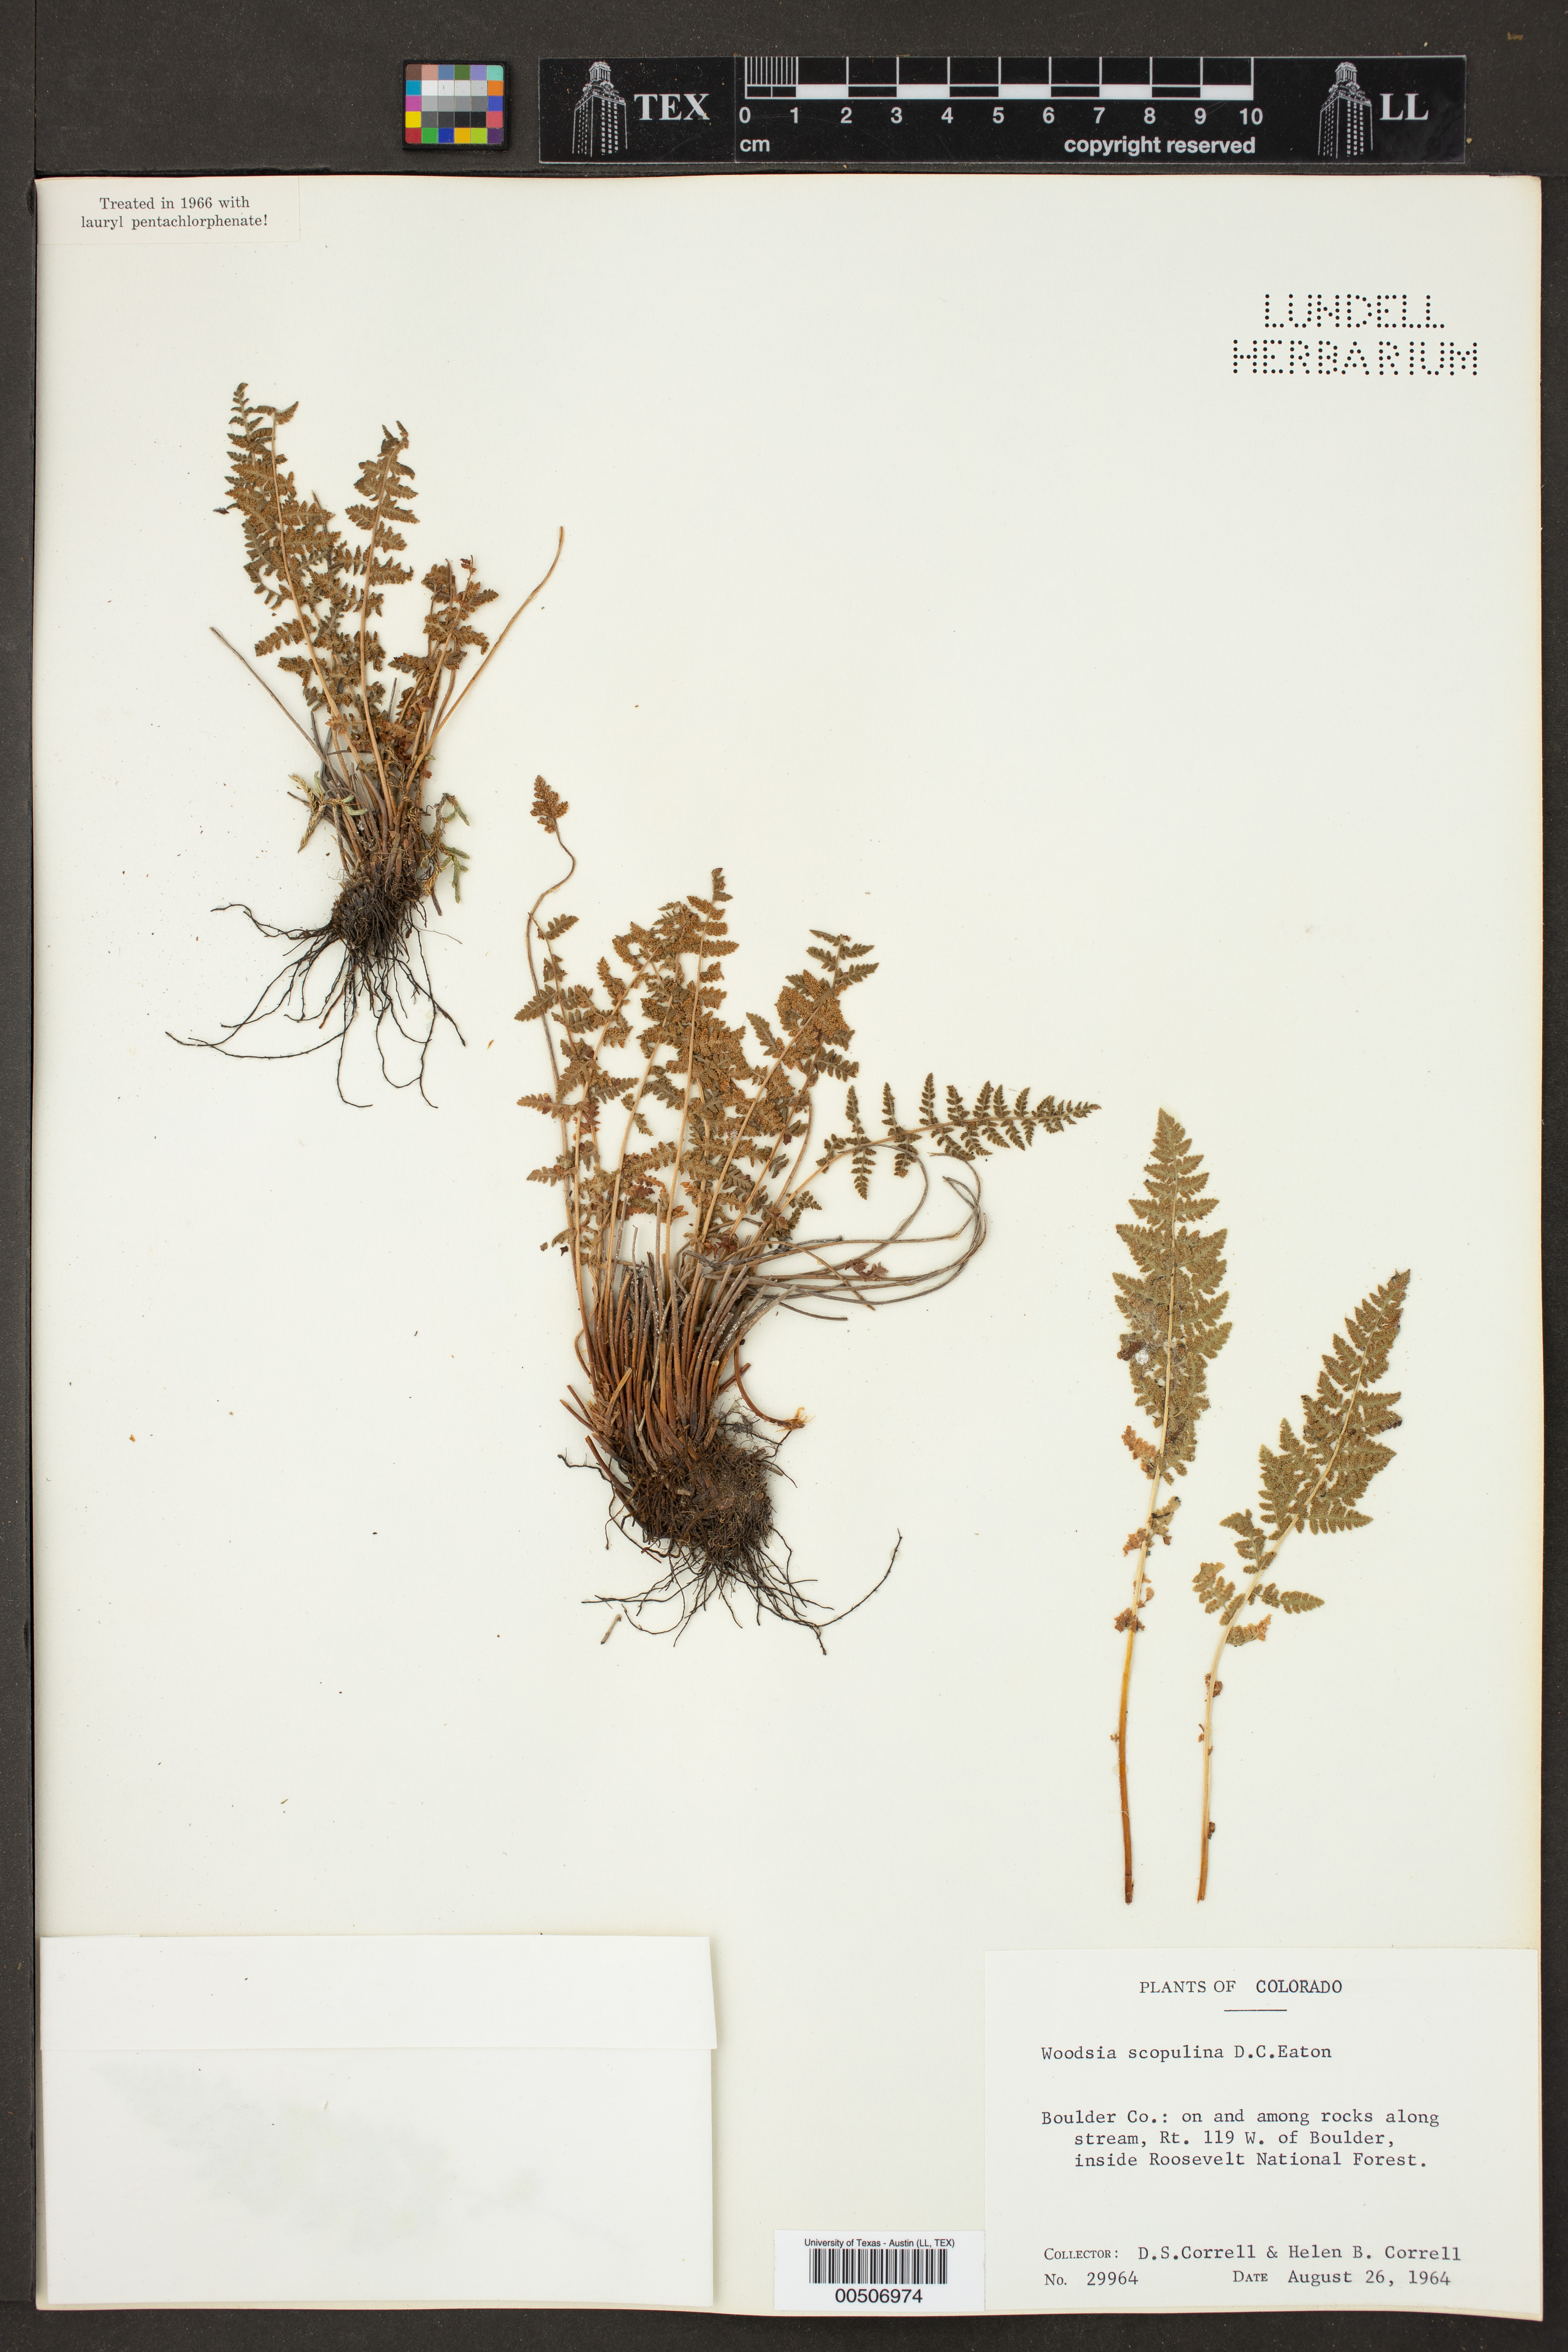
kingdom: Plantae
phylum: Tracheophyta
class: Polypodiopsida
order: Polypodiales
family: Woodsiaceae
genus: Physematium
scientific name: Physematium scopulinum
